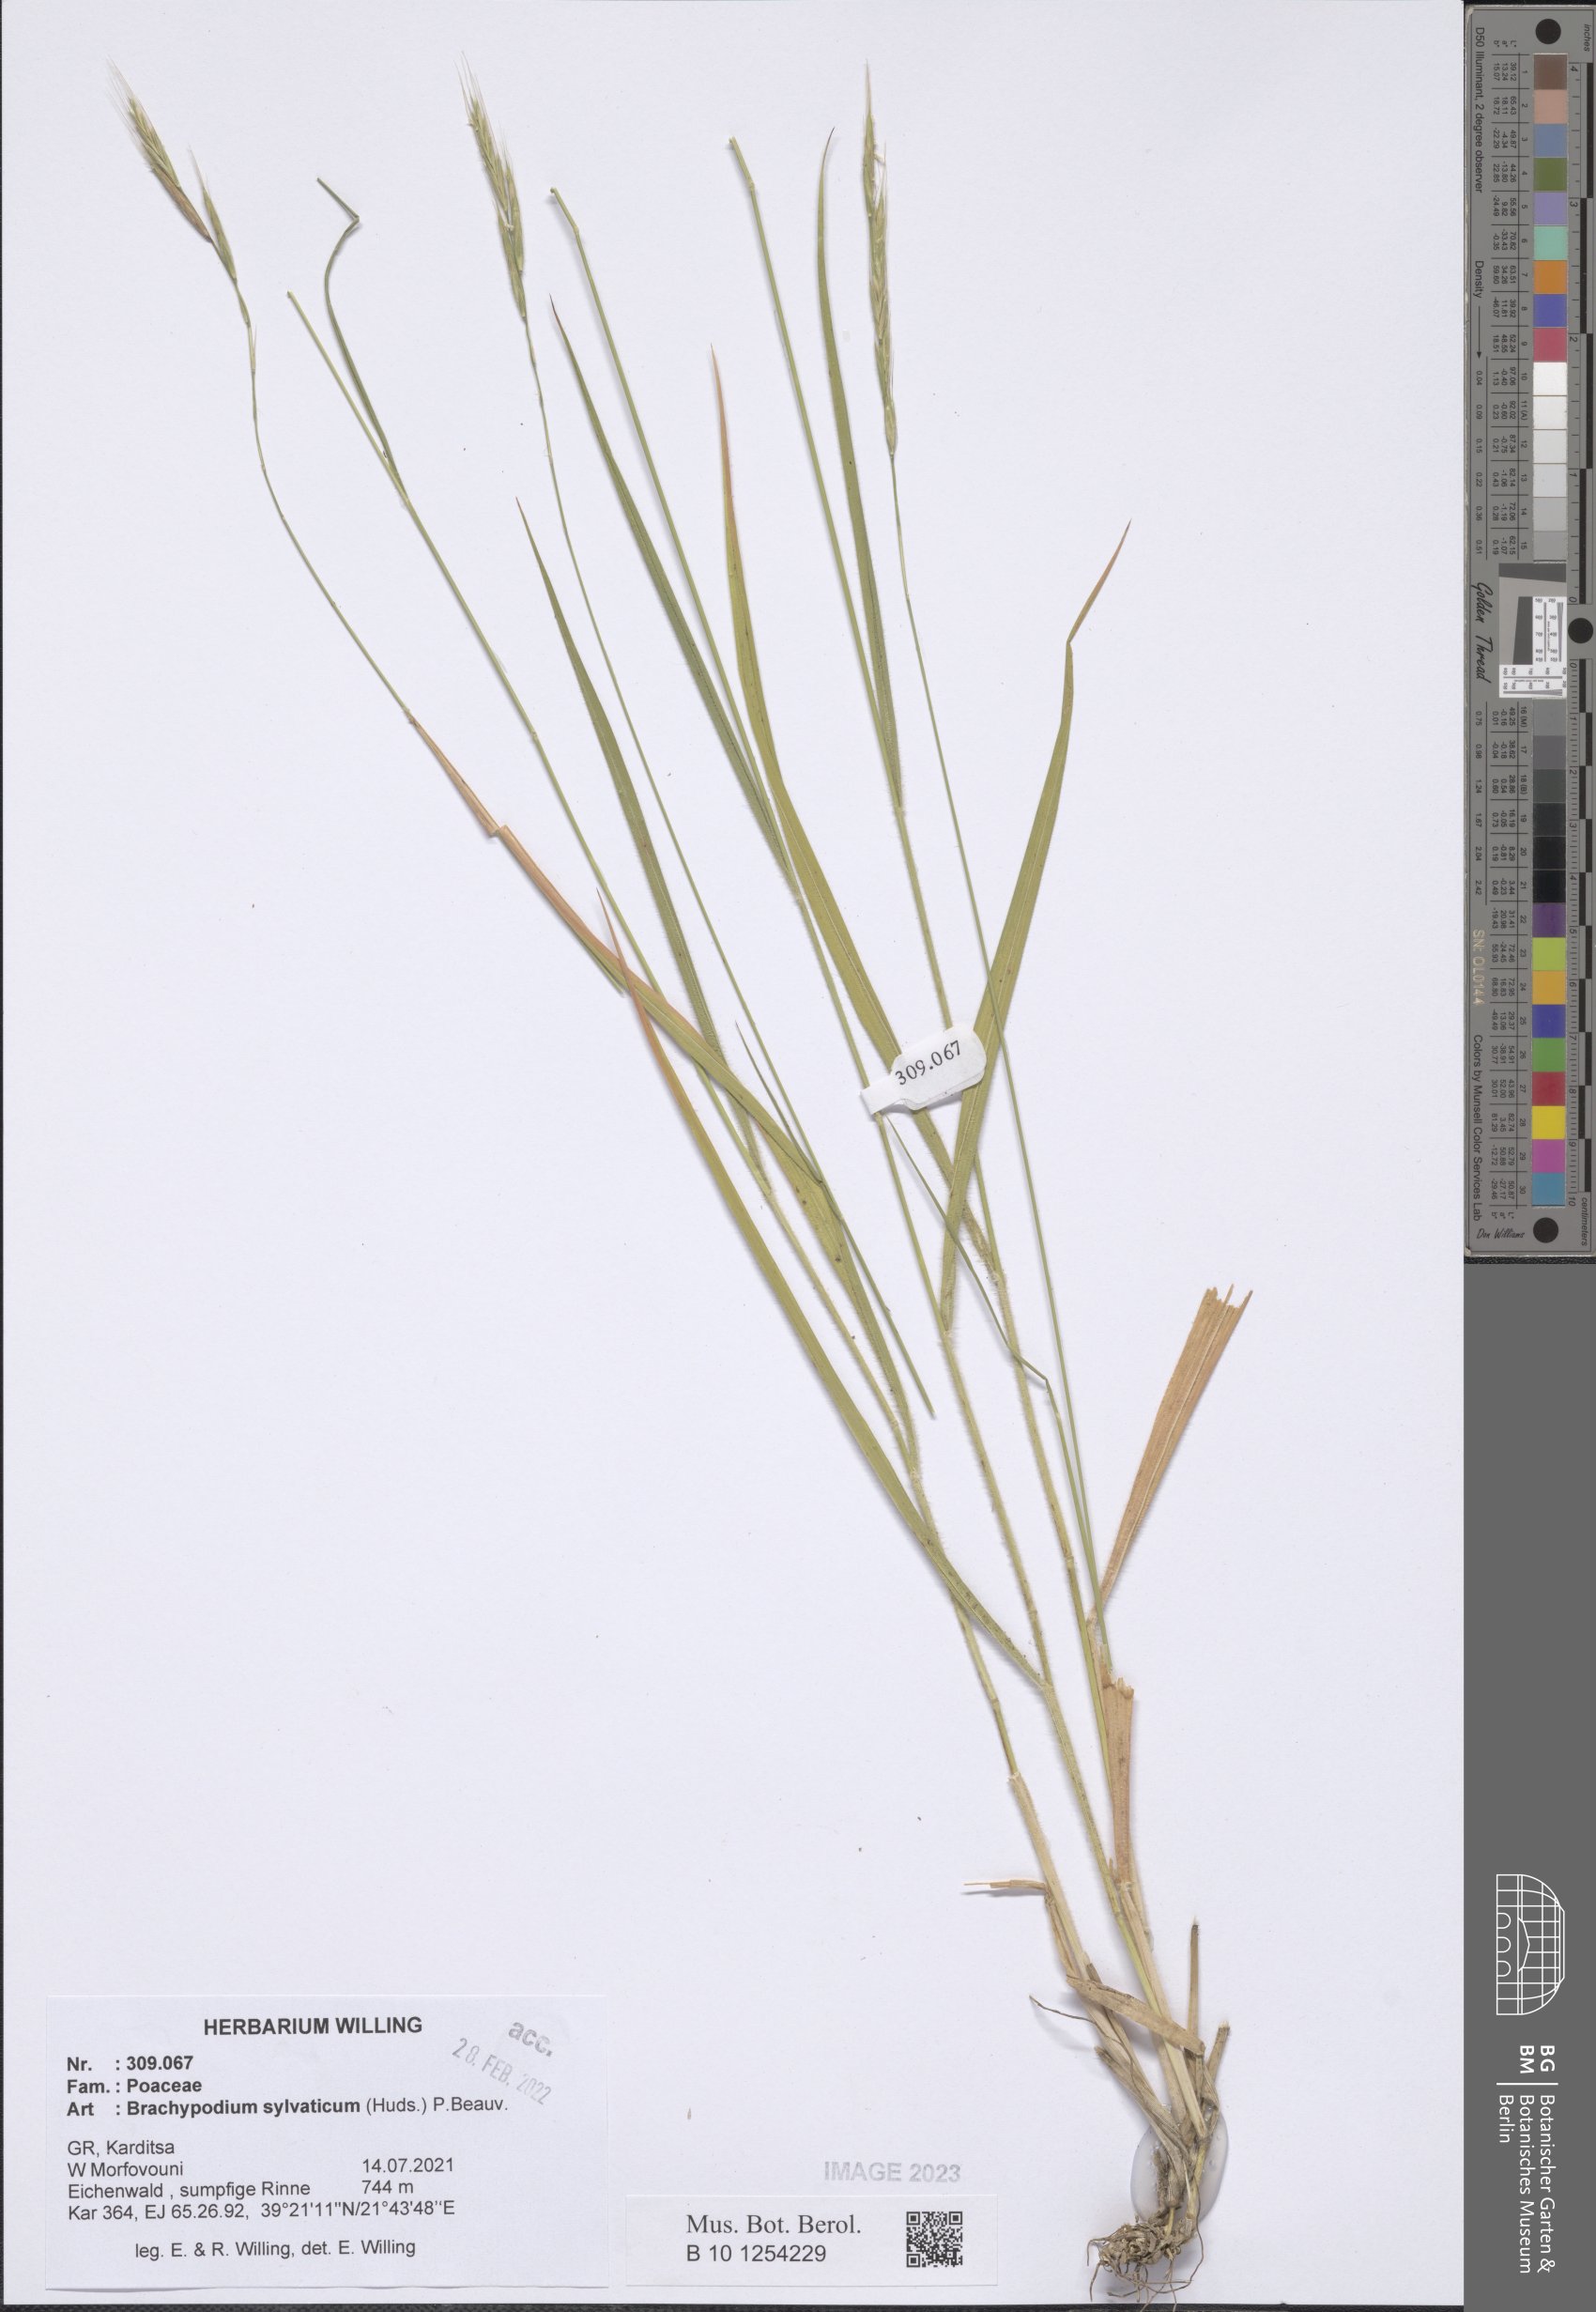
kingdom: Plantae
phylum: Tracheophyta
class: Liliopsida
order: Poales
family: Poaceae
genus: Brachypodium
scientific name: Brachypodium sylvaticum
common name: False-brome
